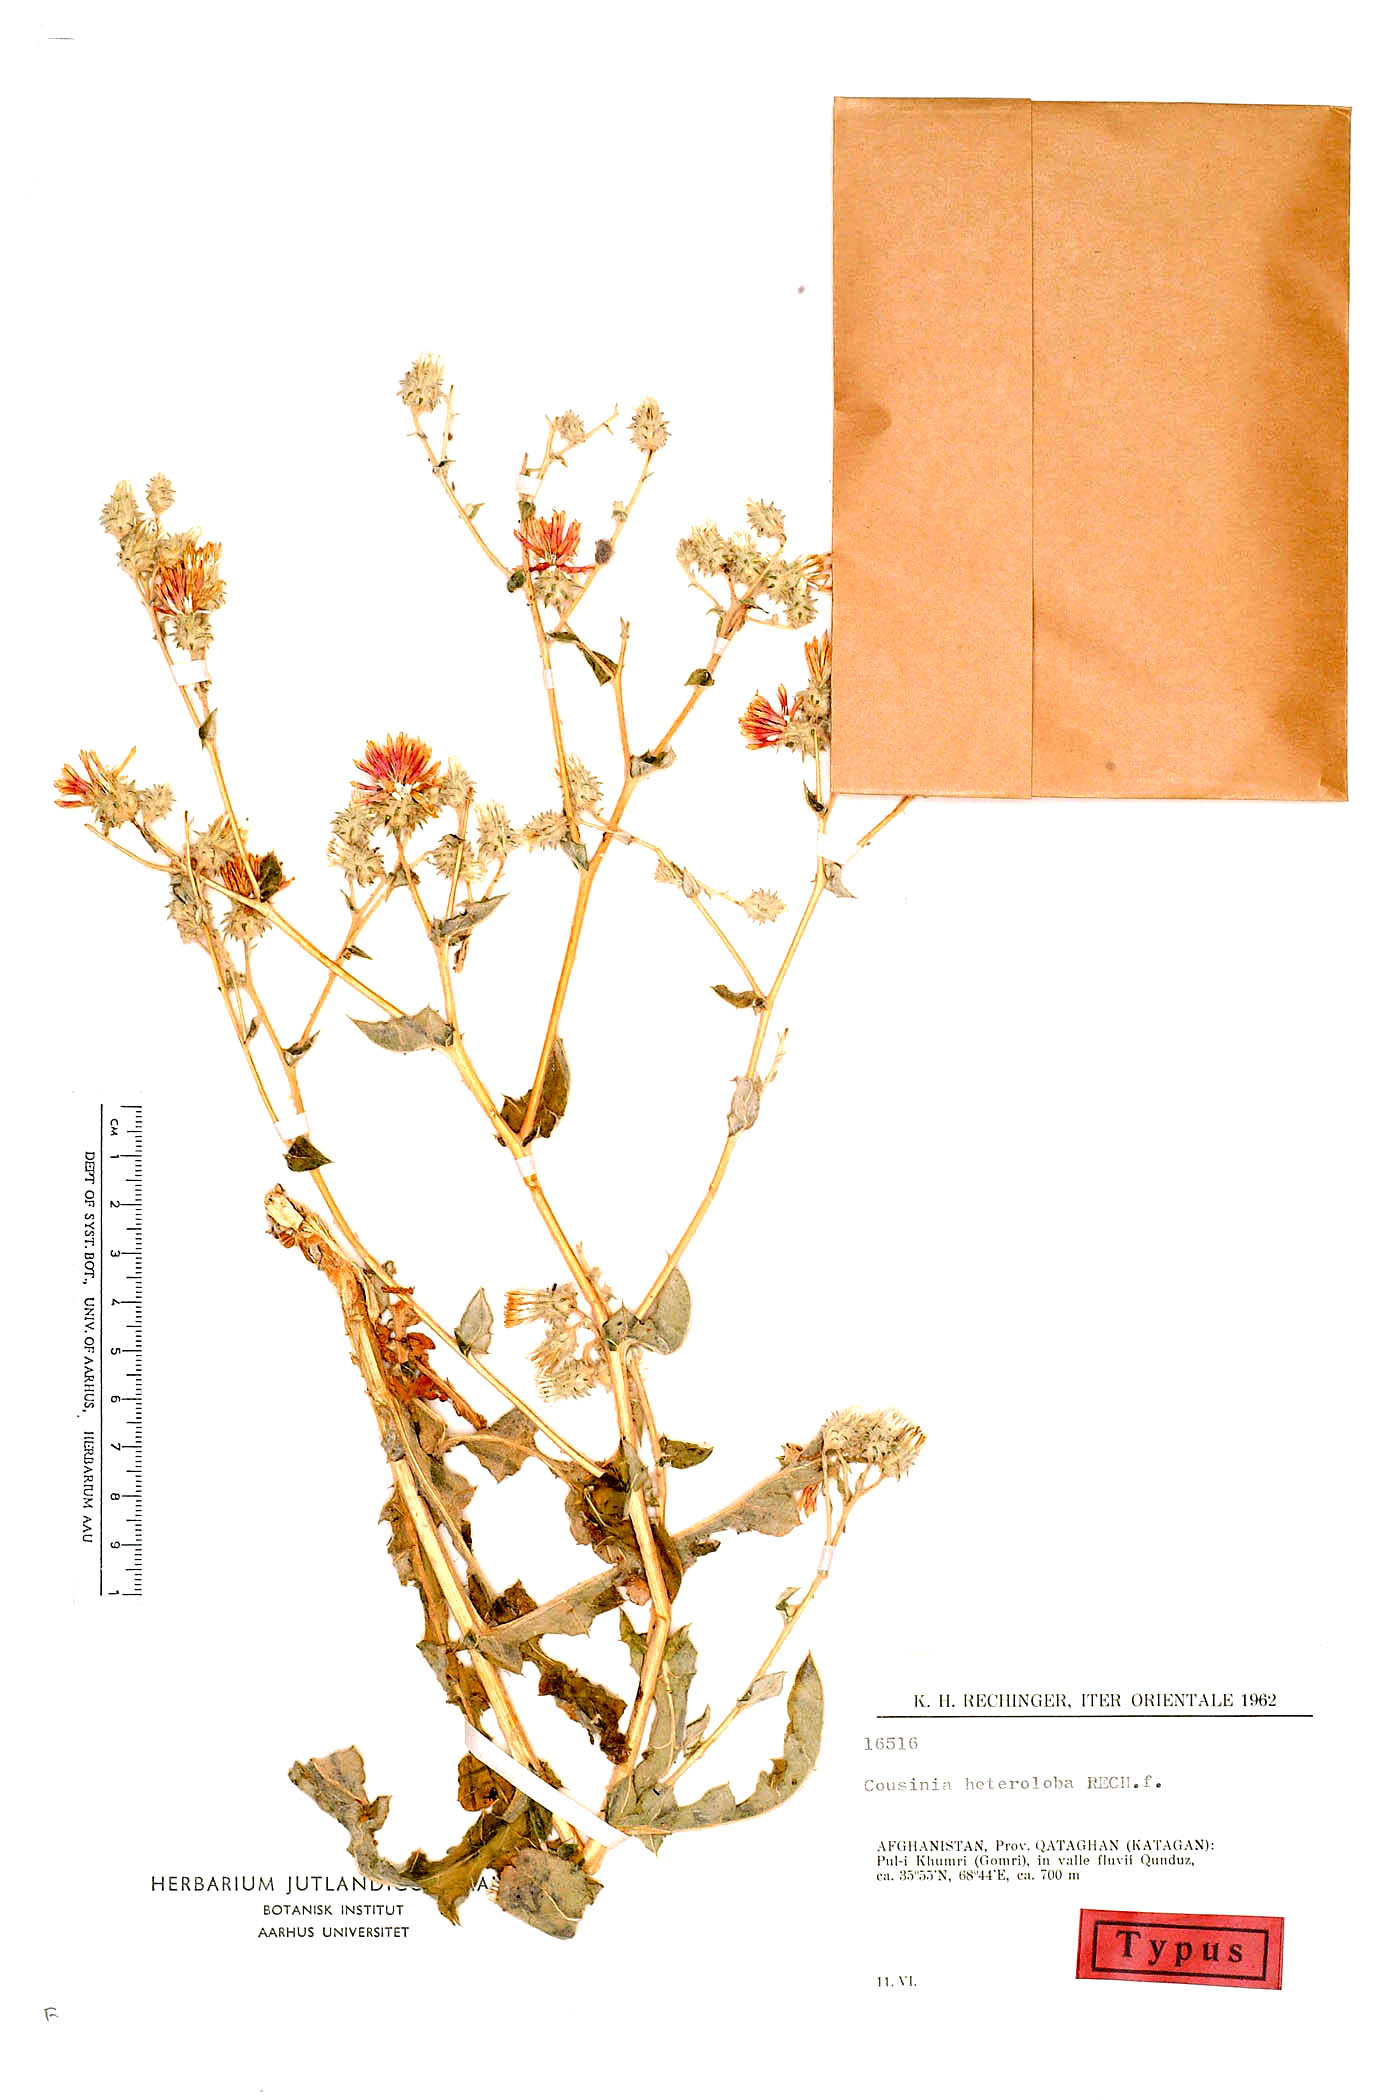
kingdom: Plantae
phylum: Tracheophyta
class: Magnoliopsida
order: Asterales
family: Asteraceae
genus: Cousinia
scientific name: Cousinia heteroloba
